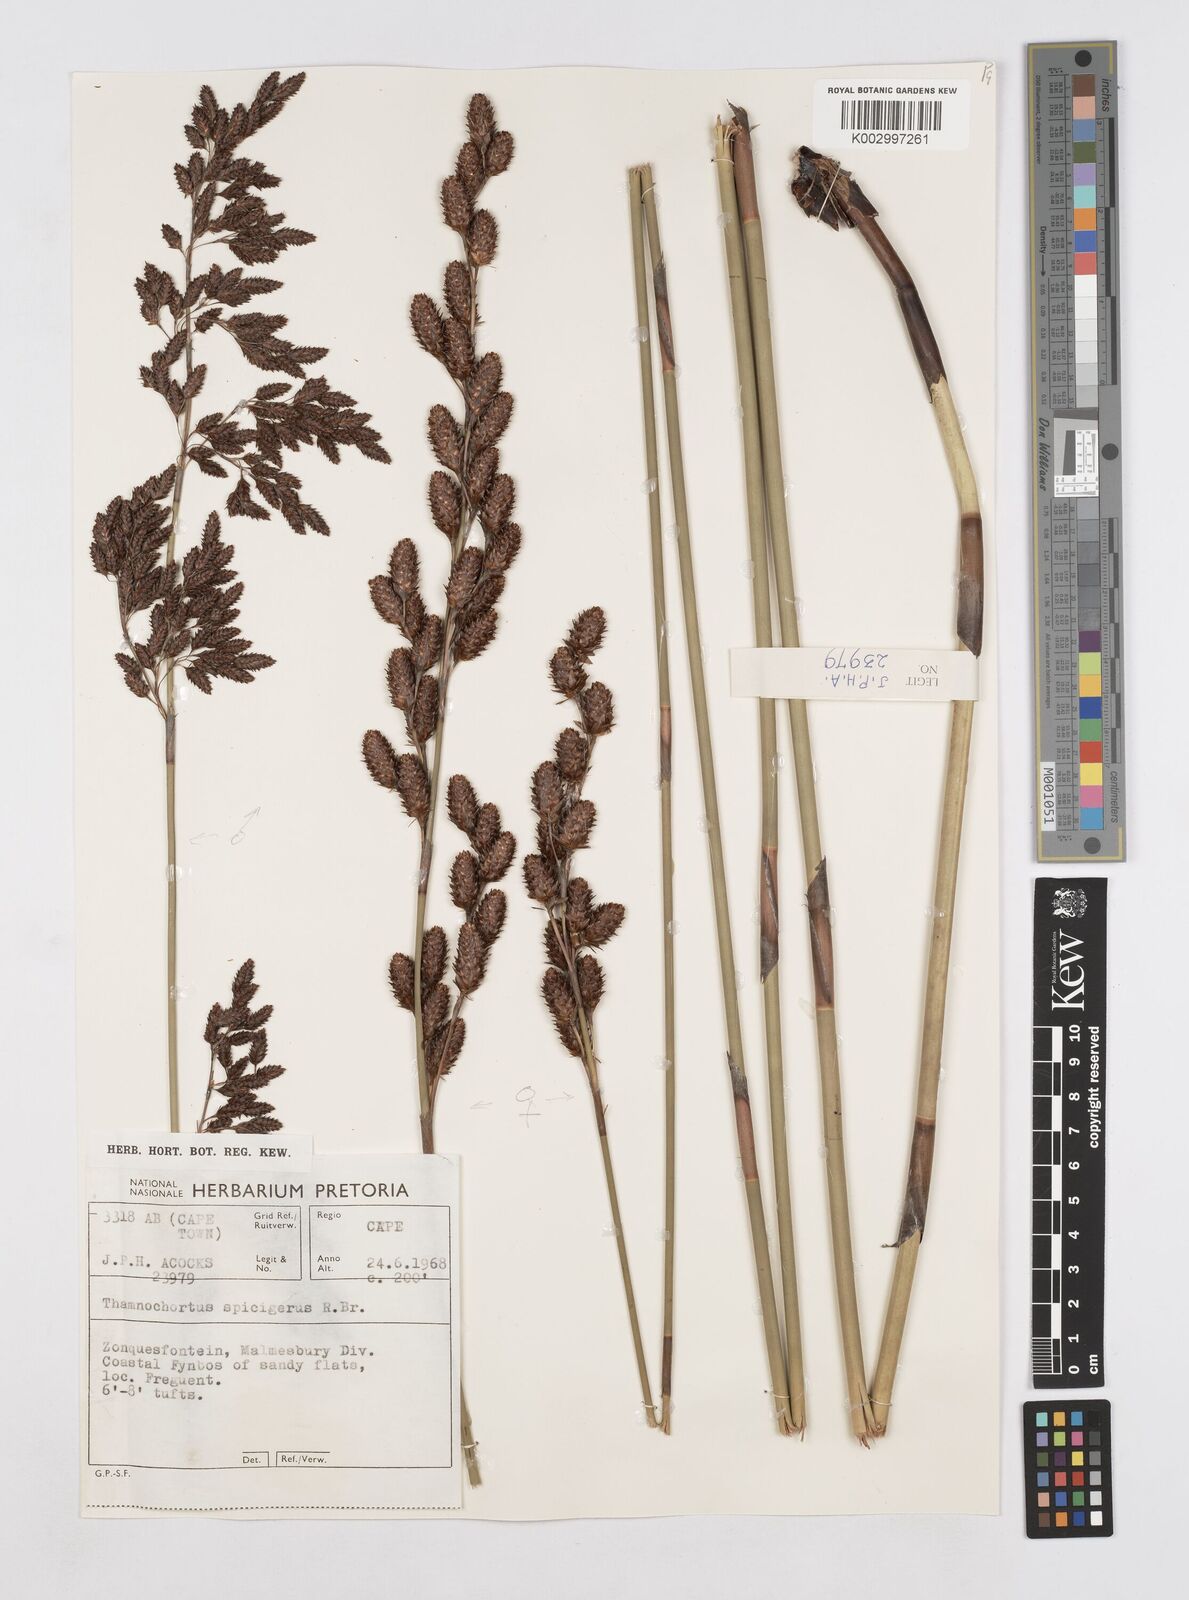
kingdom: Plantae
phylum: Tracheophyta
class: Liliopsida
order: Poales
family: Restionaceae
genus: Thamnochortus
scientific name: Thamnochortus spicigerus
